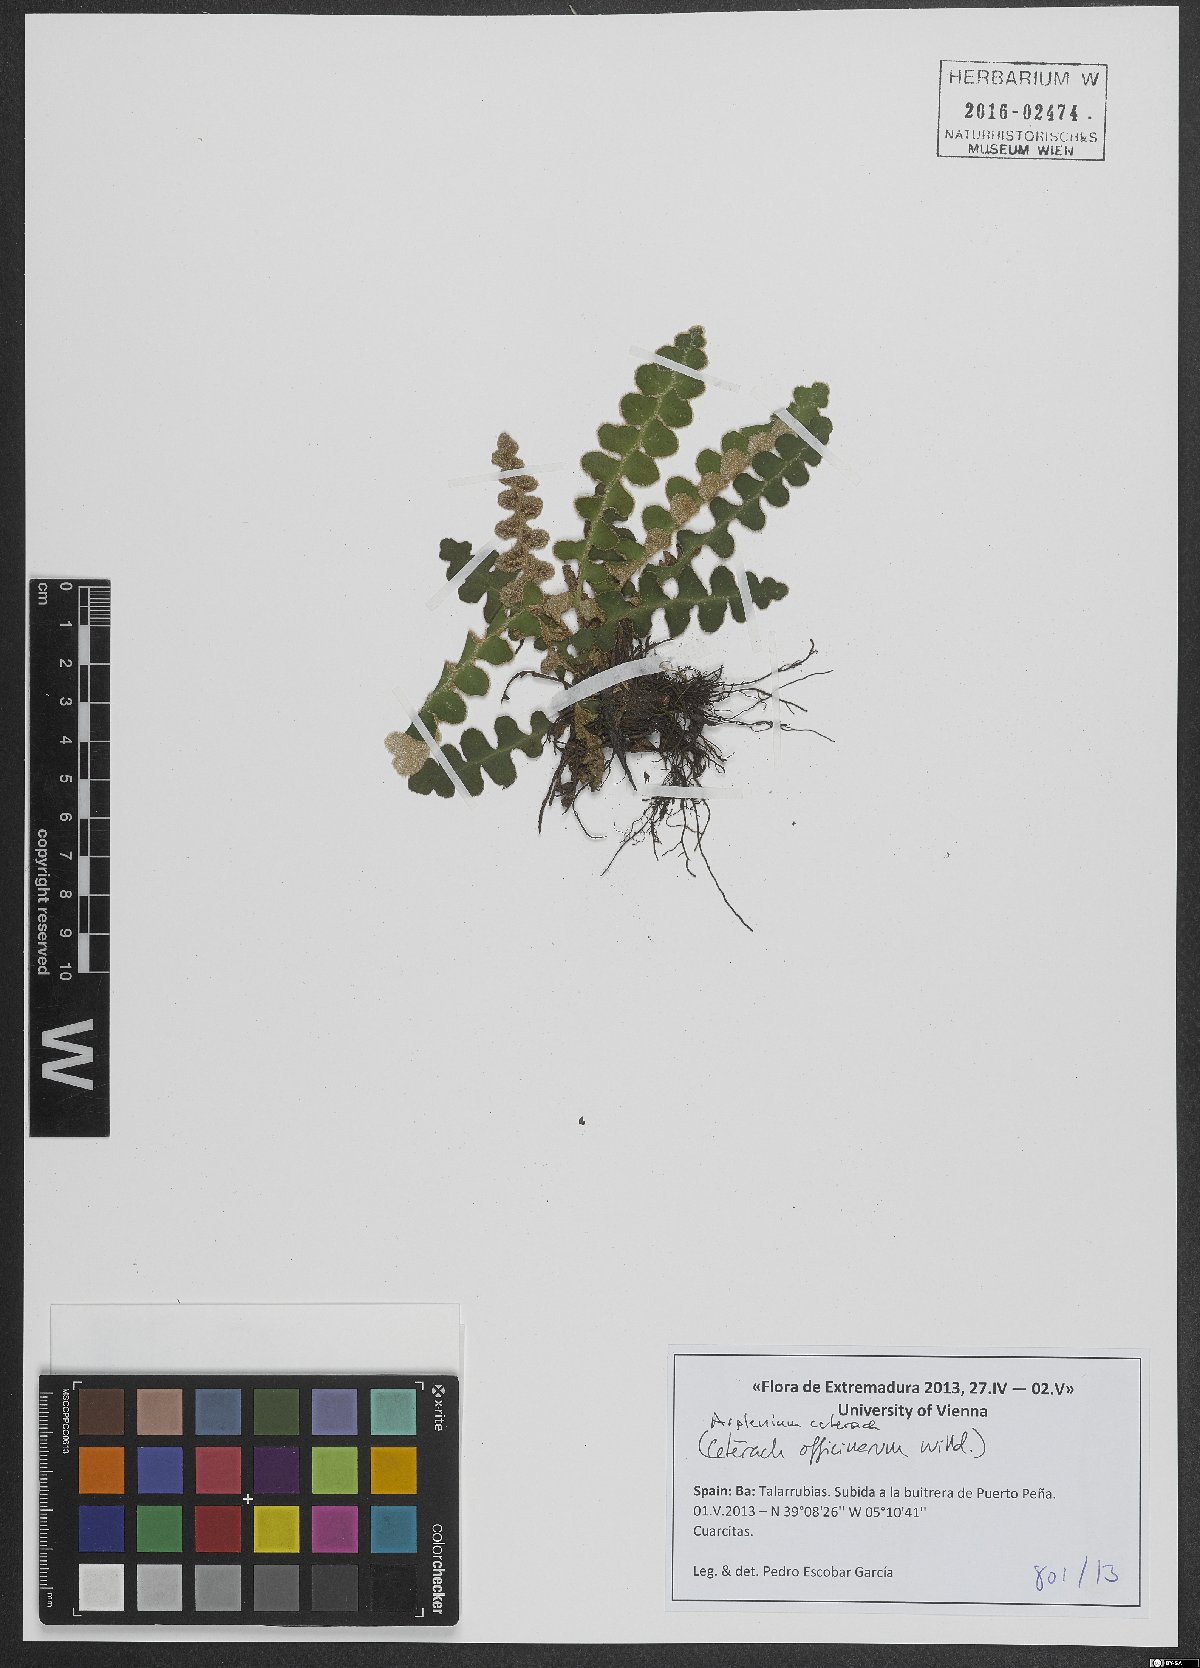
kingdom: Plantae
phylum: Tracheophyta
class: Polypodiopsida
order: Polypodiales
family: Aspleniaceae
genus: Asplenium
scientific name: Asplenium ceterach
